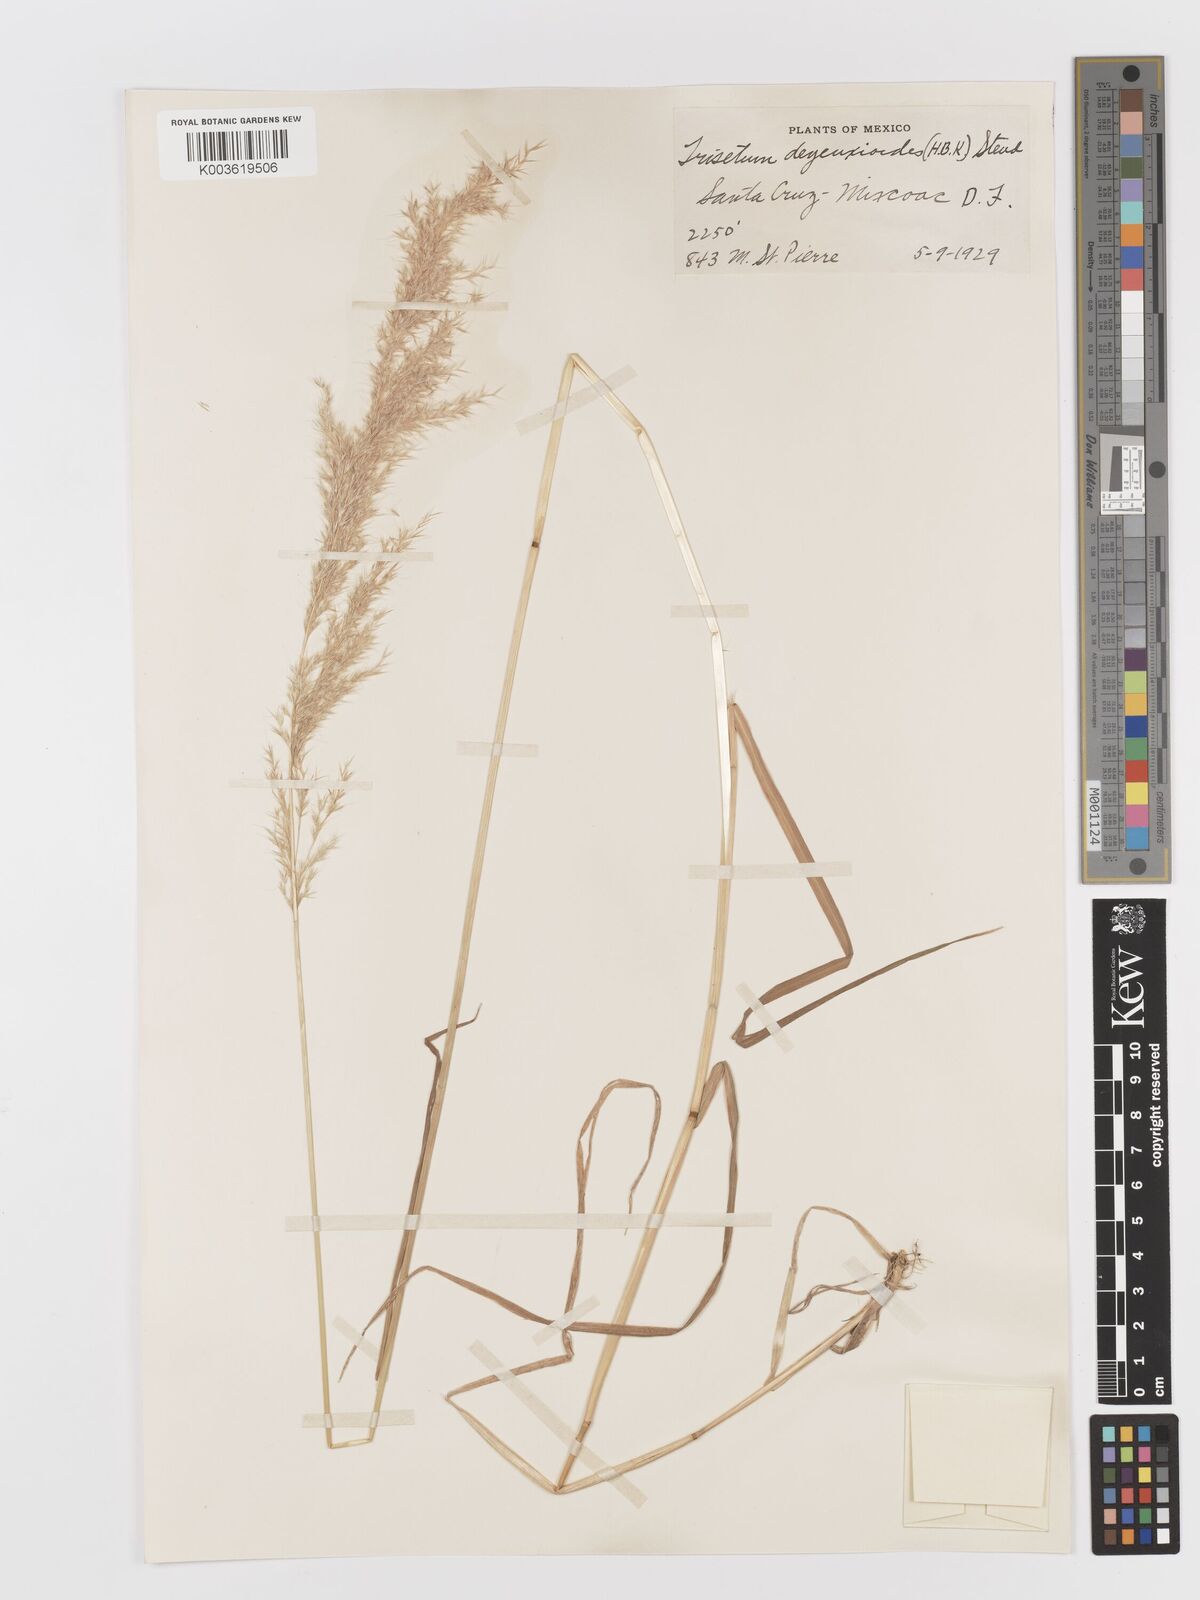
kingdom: Plantae
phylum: Tracheophyta
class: Liliopsida
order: Poales
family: Poaceae
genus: Peyritschia
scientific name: Peyritschia deyeuxioides
